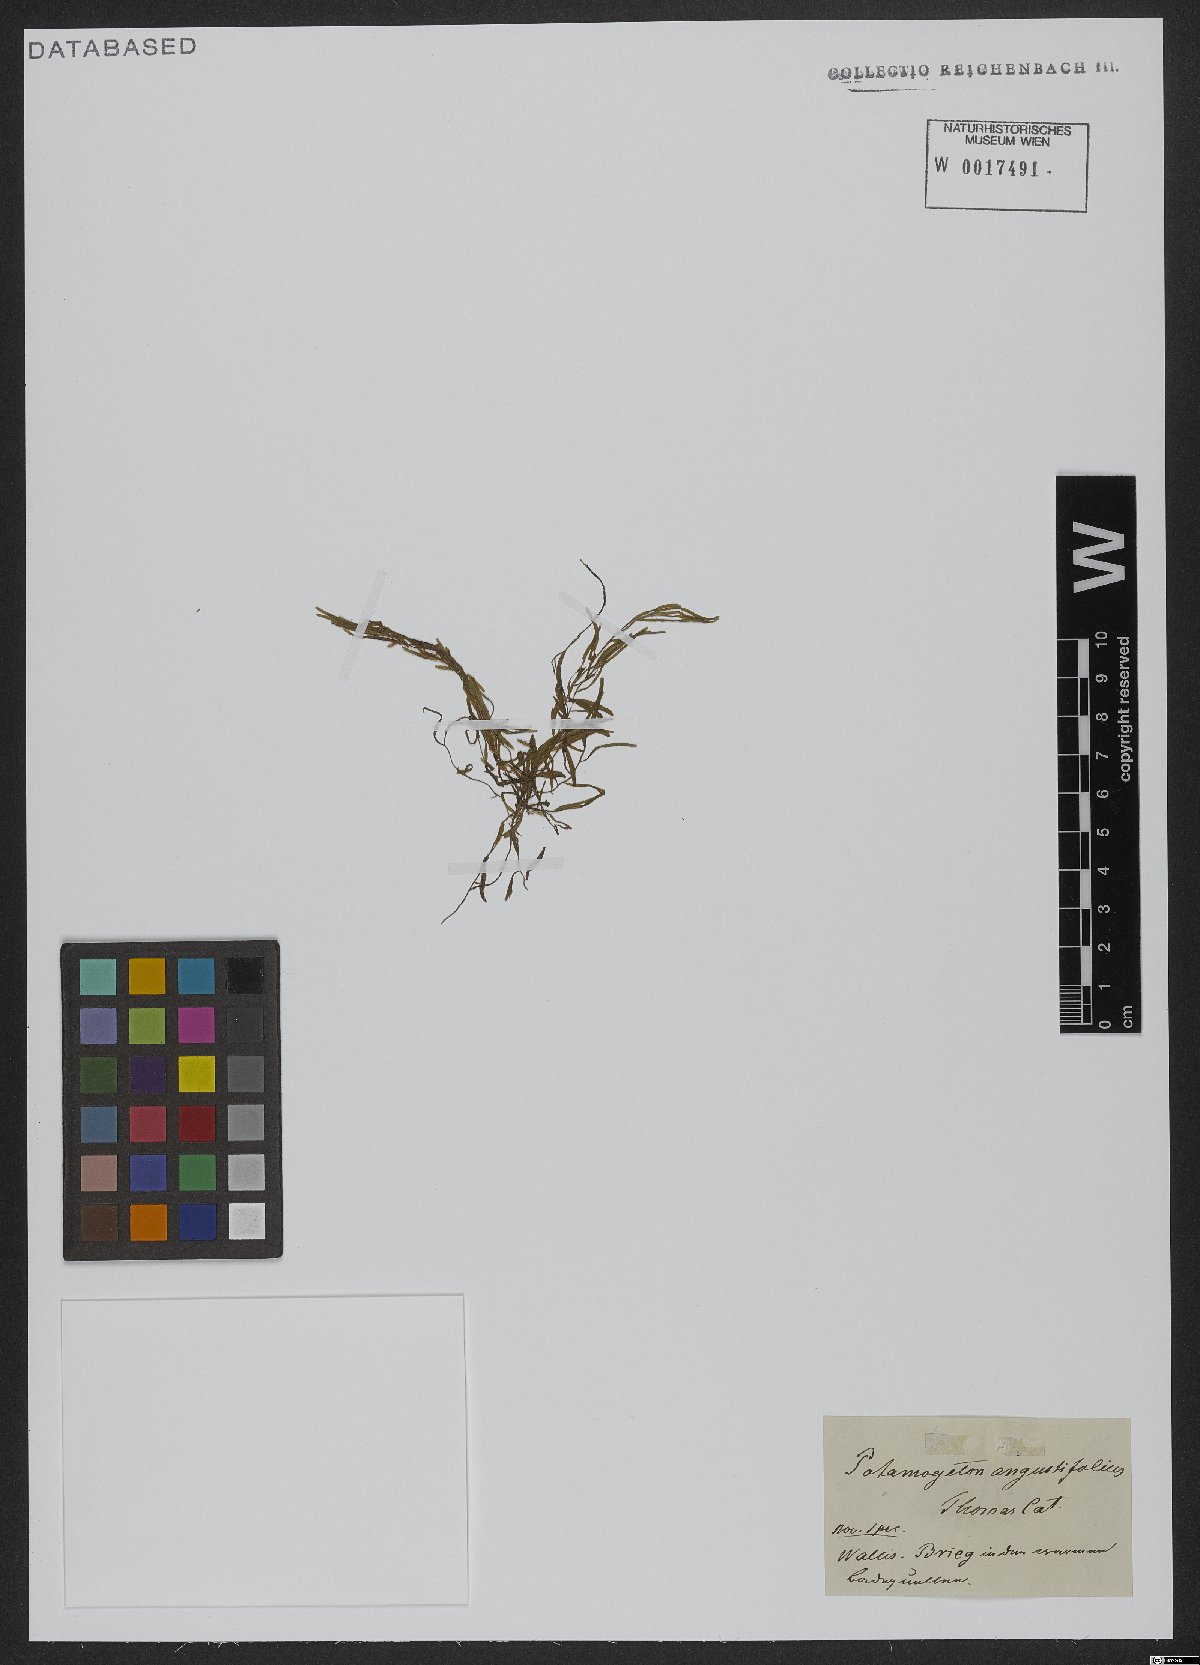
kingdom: Plantae
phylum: Tracheophyta
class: Liliopsida
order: Alismatales
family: Potamogetonaceae
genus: Potamogeton
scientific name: Potamogeton
